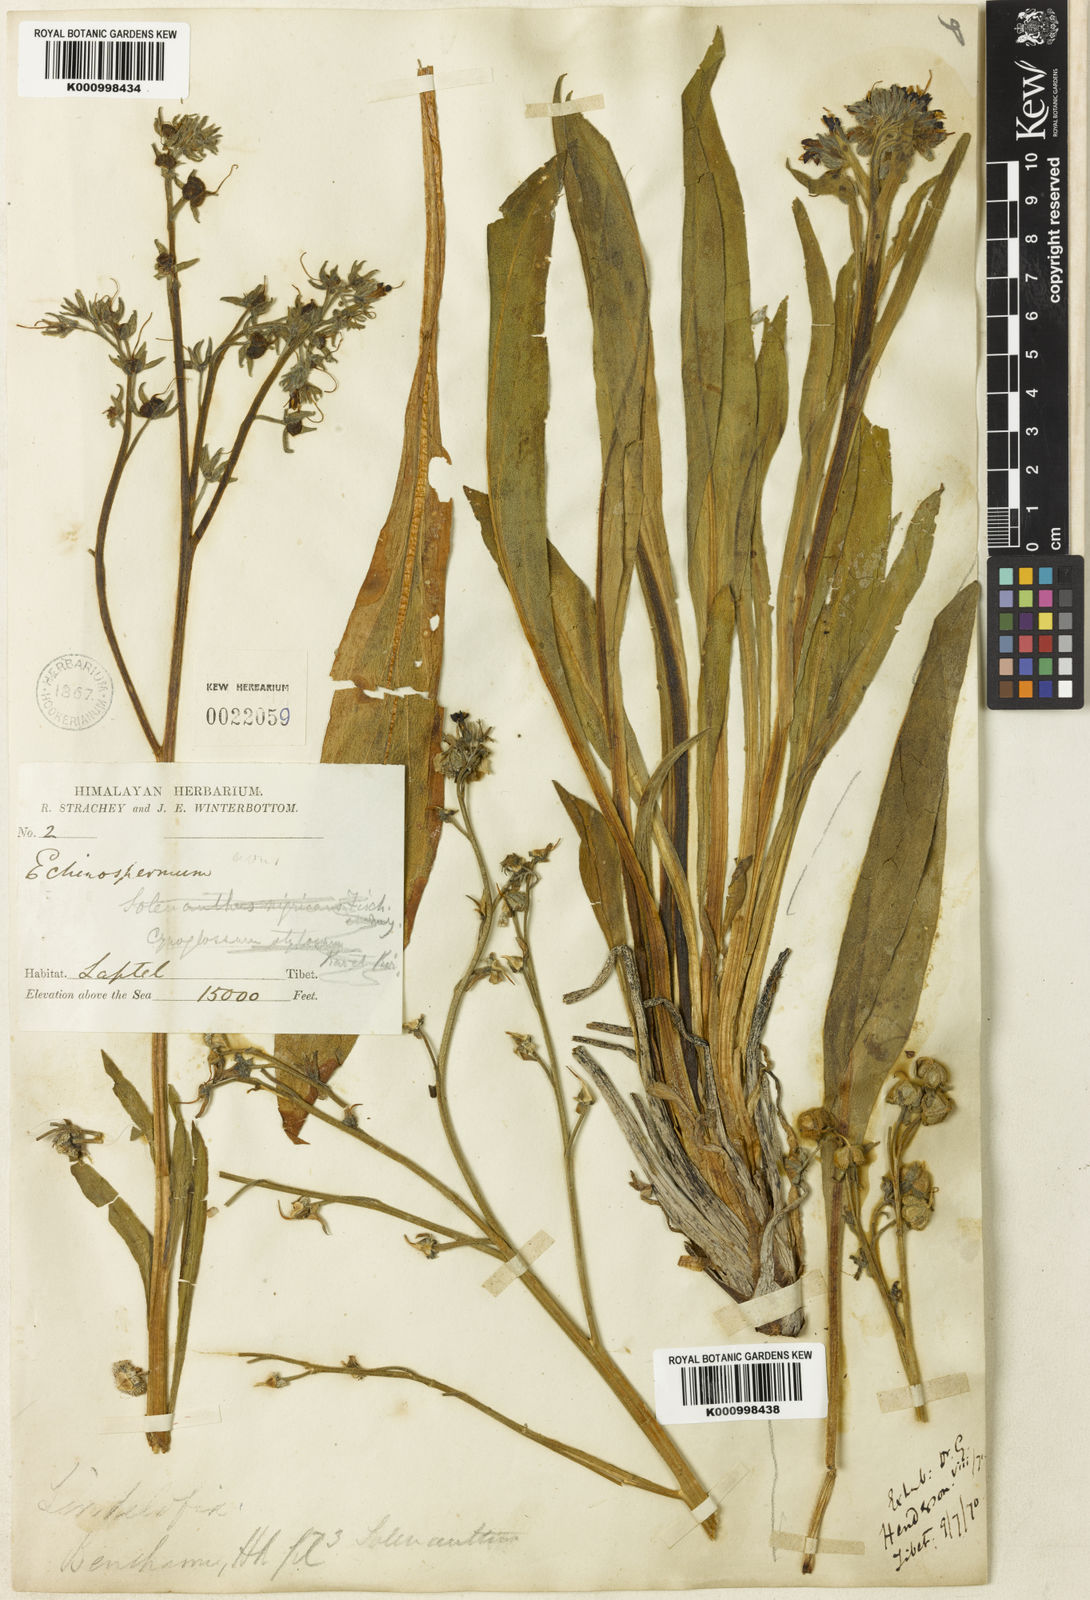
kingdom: Plantae
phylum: Tracheophyta
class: Magnoliopsida
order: Boraginales
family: Boraginaceae
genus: Lindelofia
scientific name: Lindelofia stylosa
